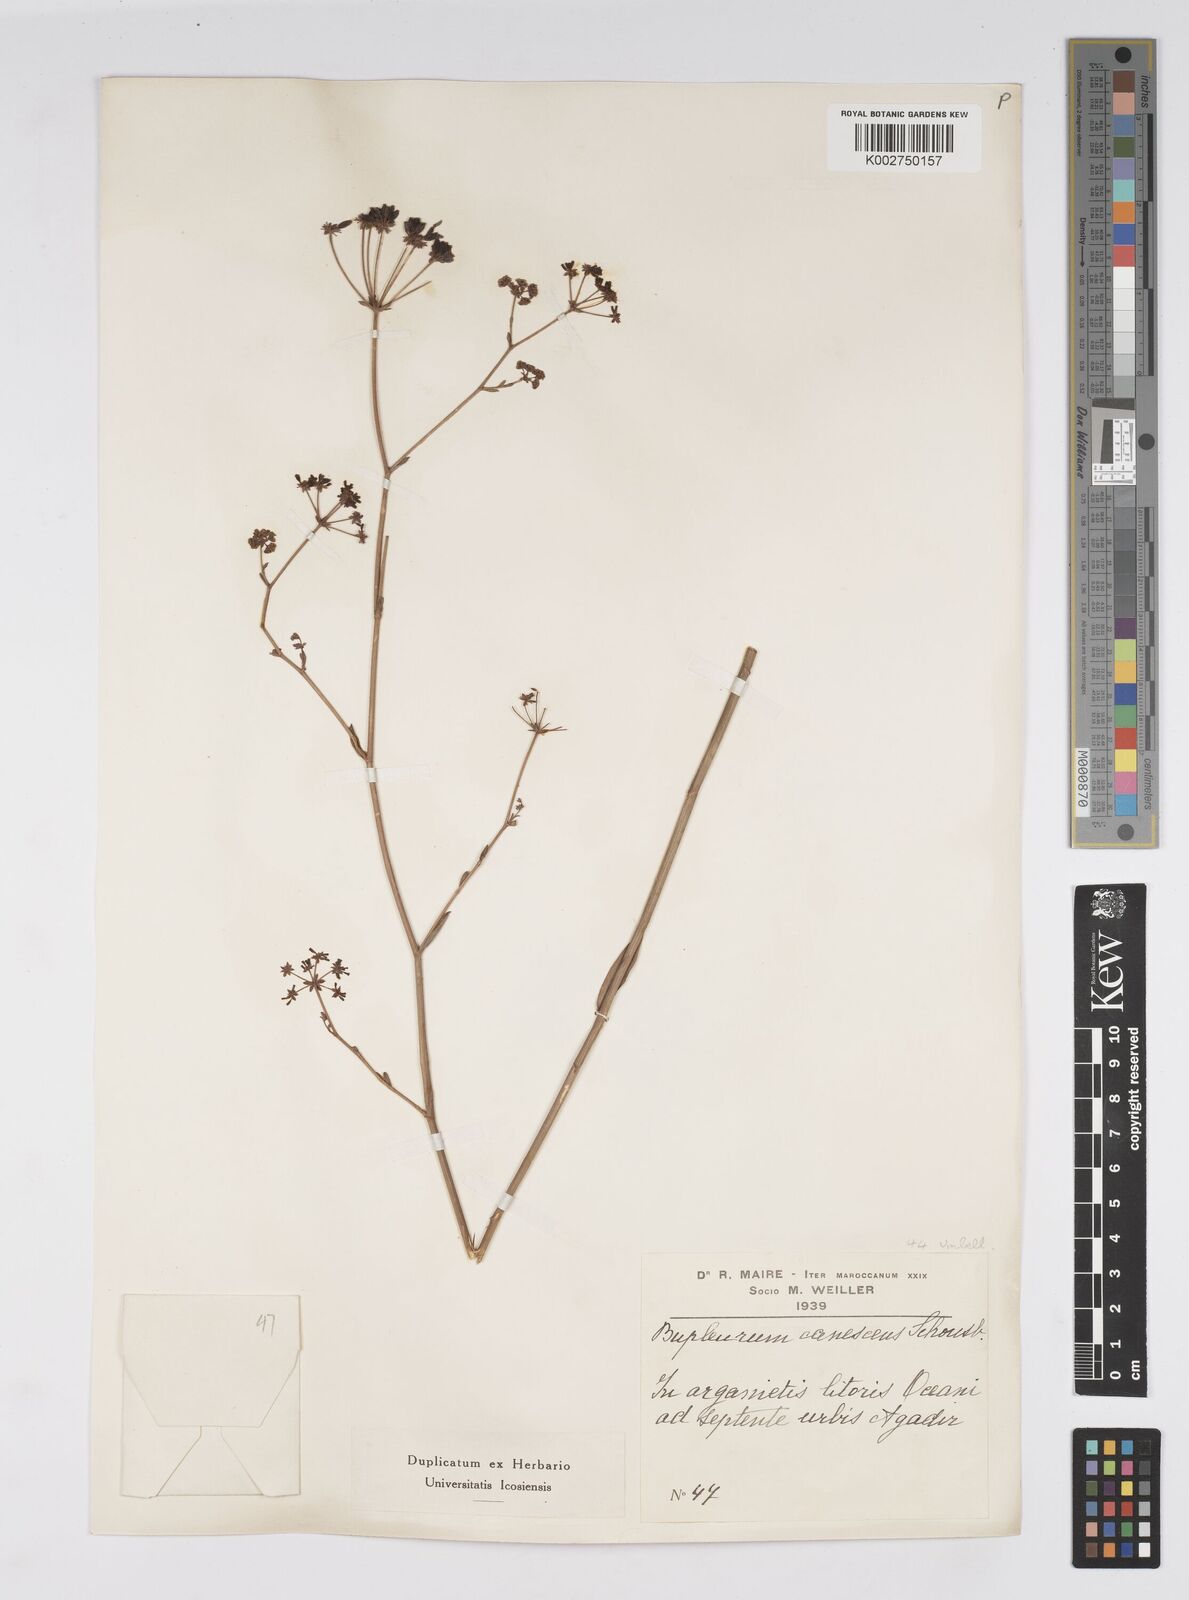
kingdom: Plantae
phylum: Tracheophyta
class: Magnoliopsida
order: Apiales
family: Apiaceae
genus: Bupleurum
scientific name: Bupleurum canescens
